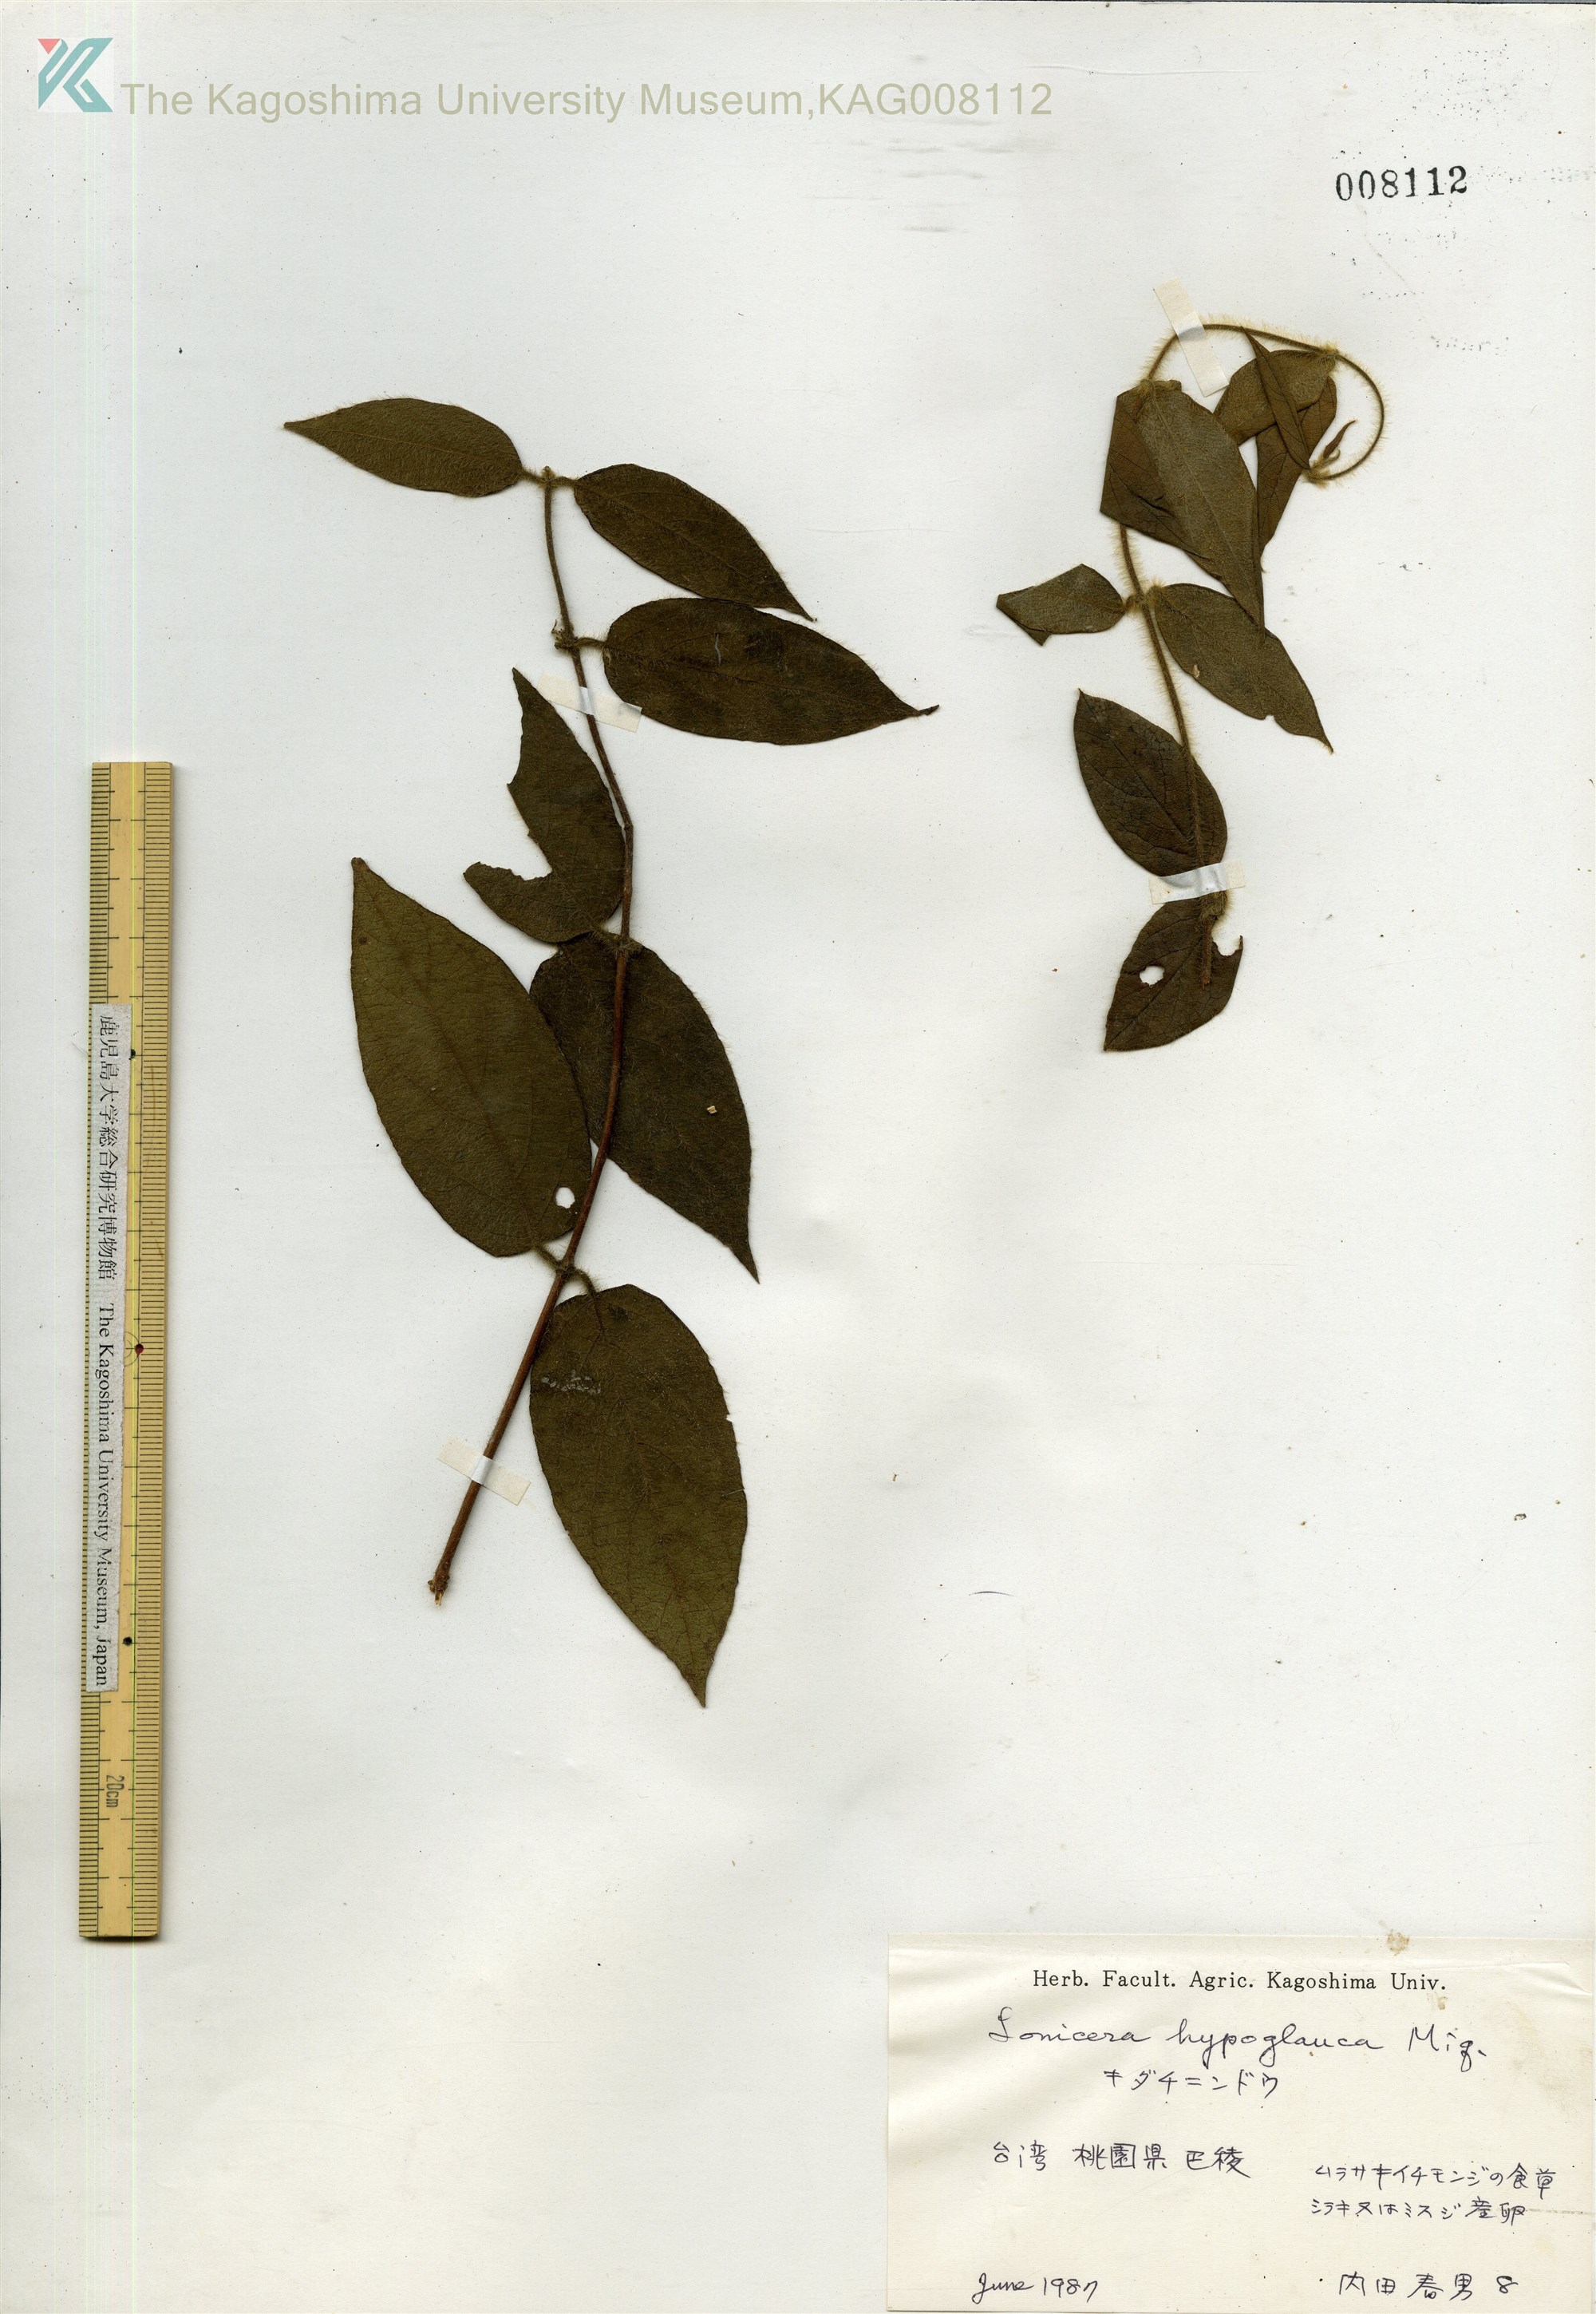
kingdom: Plantae
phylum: Tracheophyta
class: Magnoliopsida
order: Dipsacales
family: Caprifoliaceae
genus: Lonicera
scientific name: Lonicera hypoglauca
